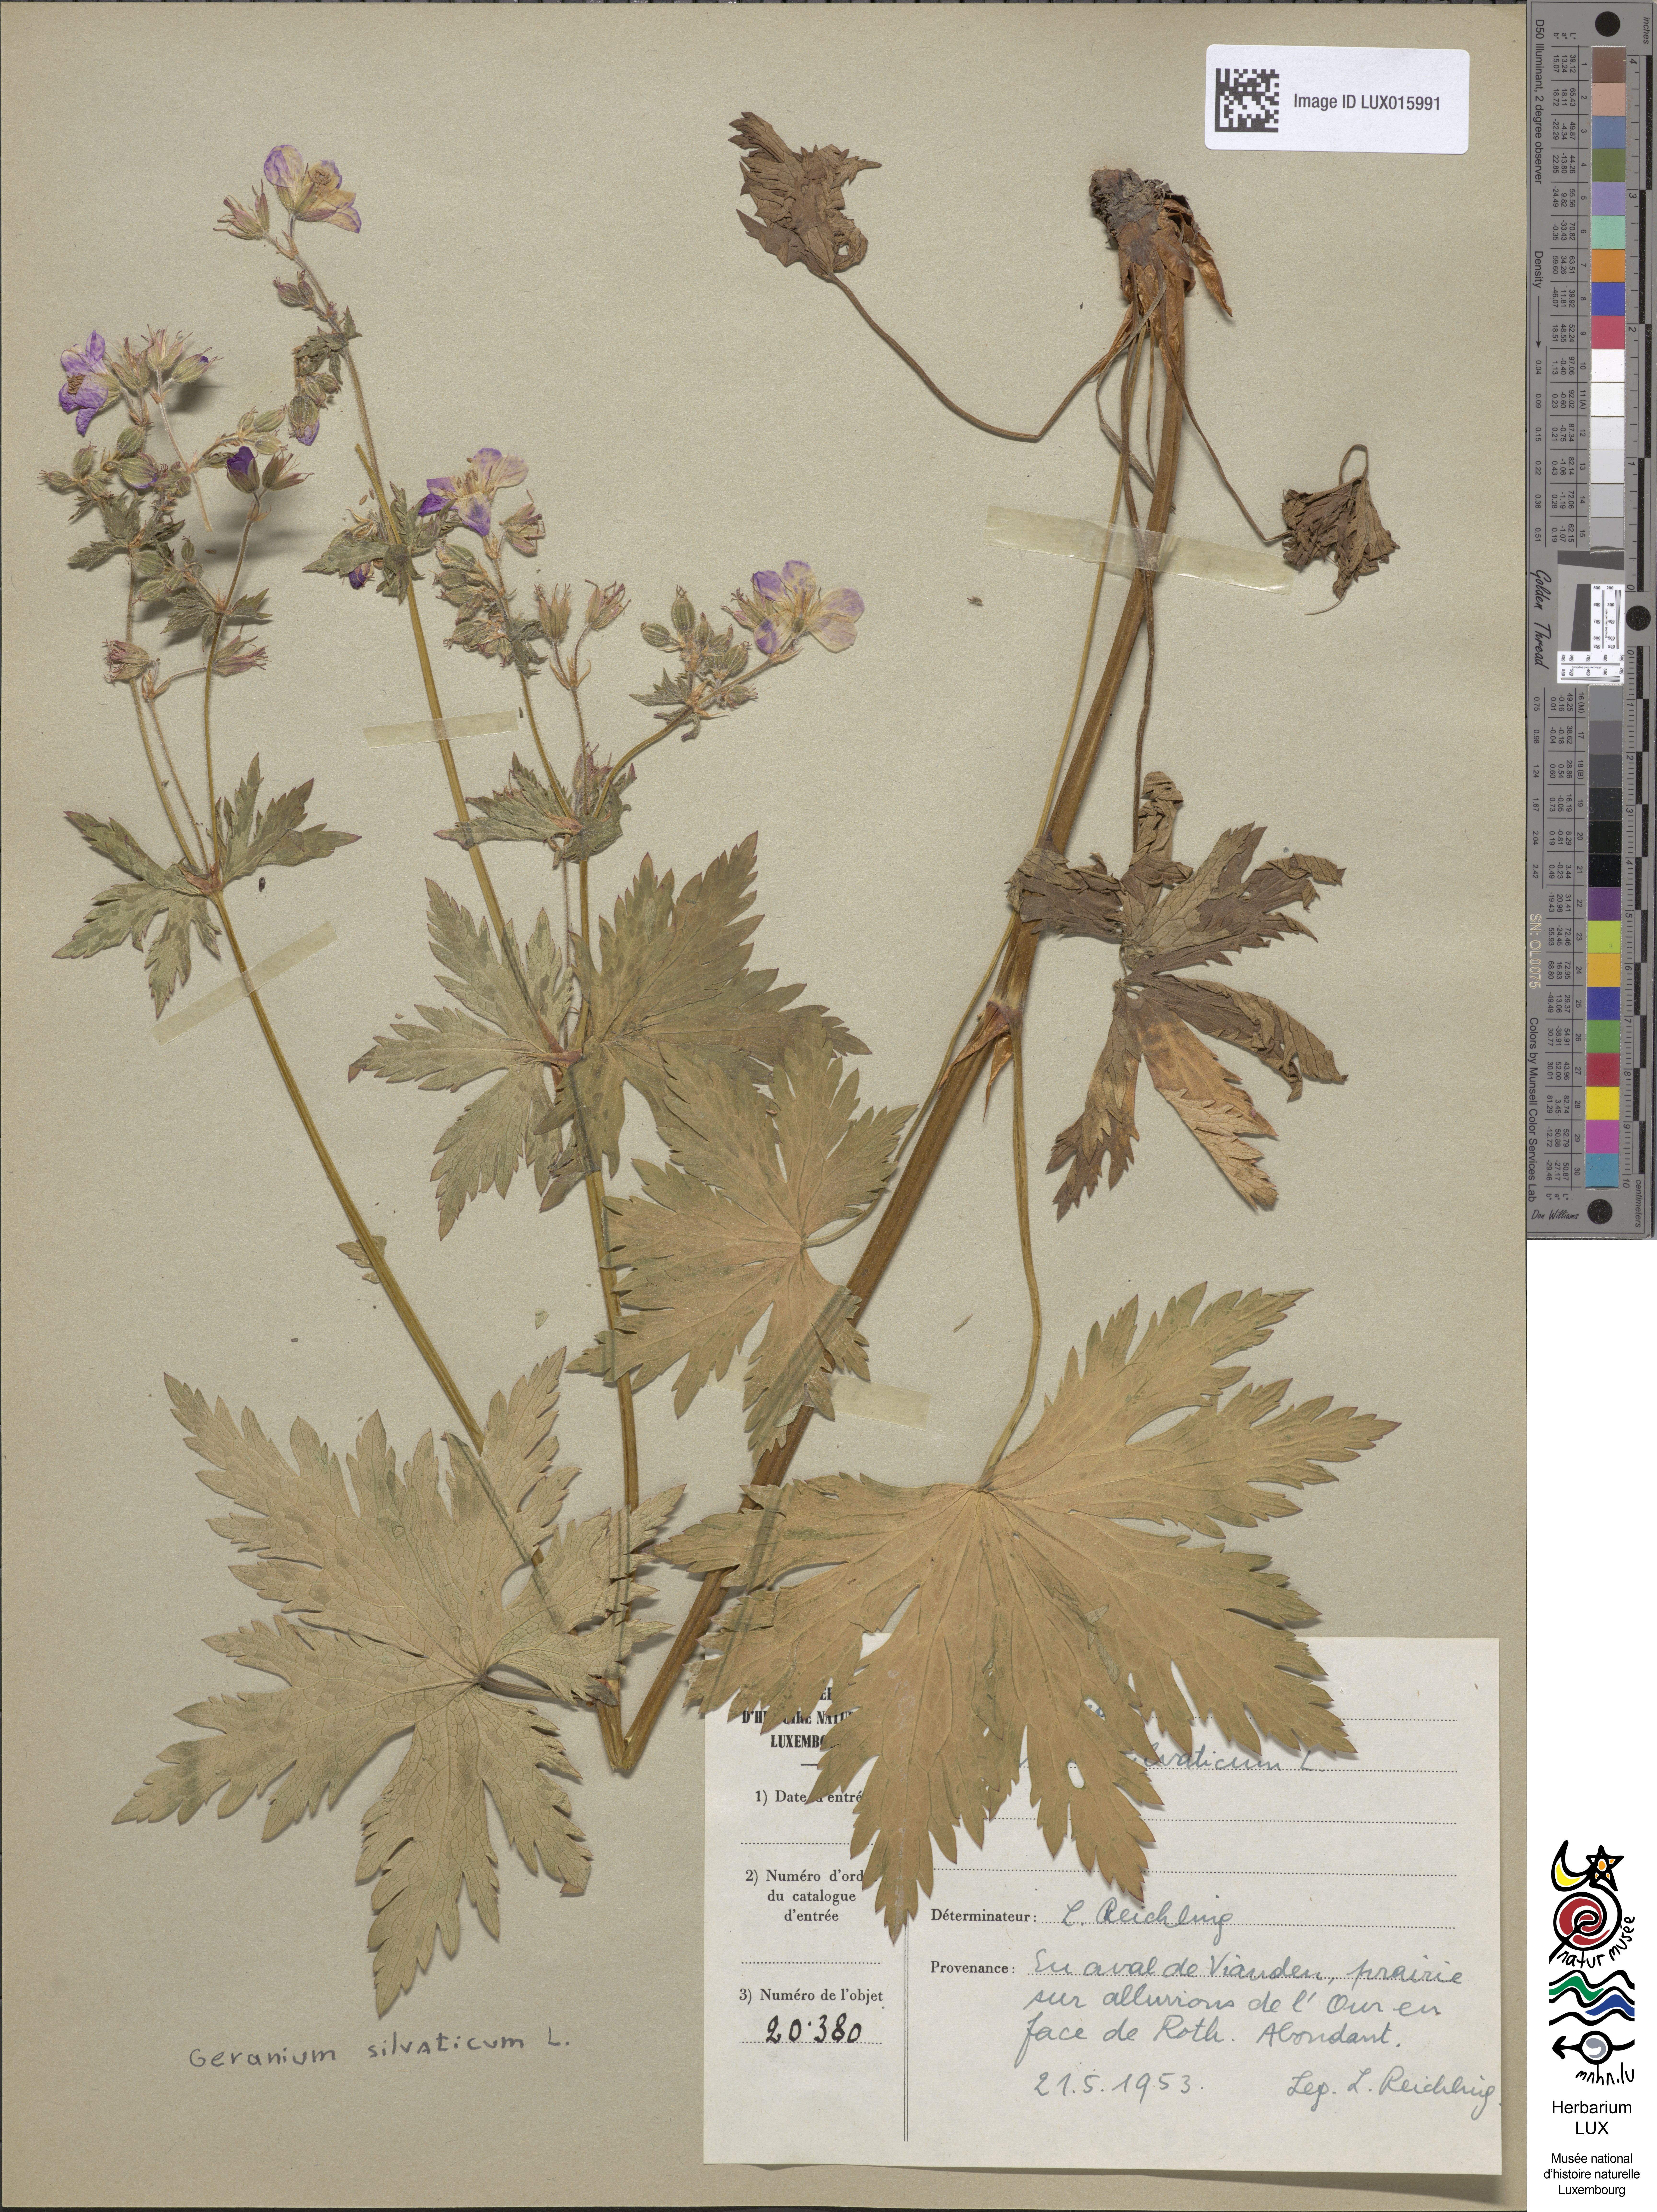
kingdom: Plantae
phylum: Tracheophyta
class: Magnoliopsida
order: Geraniales
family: Geraniaceae
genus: Geranium
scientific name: Geranium sylvaticum
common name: Wood crane's-bill
